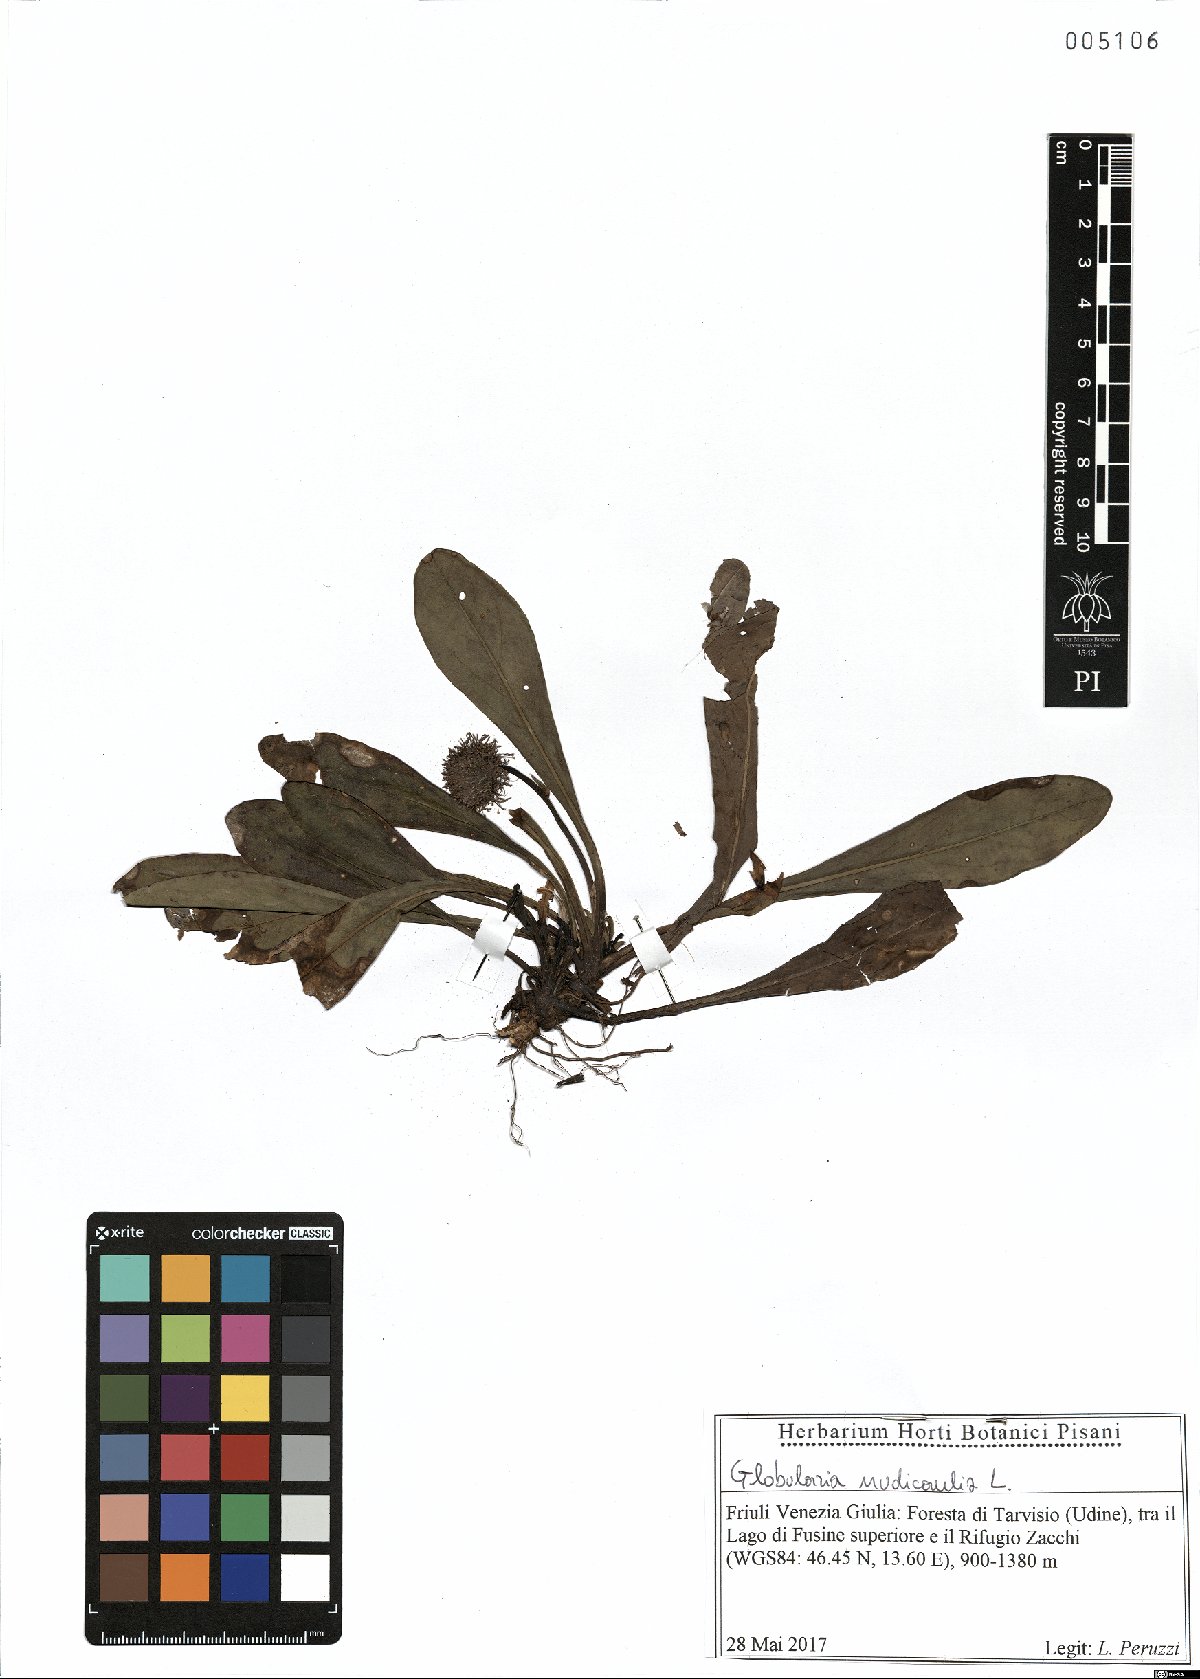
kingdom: Plantae
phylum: Tracheophyta
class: Magnoliopsida
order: Lamiales
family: Plantaginaceae
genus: Globularia
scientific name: Globularia nudicaulis
